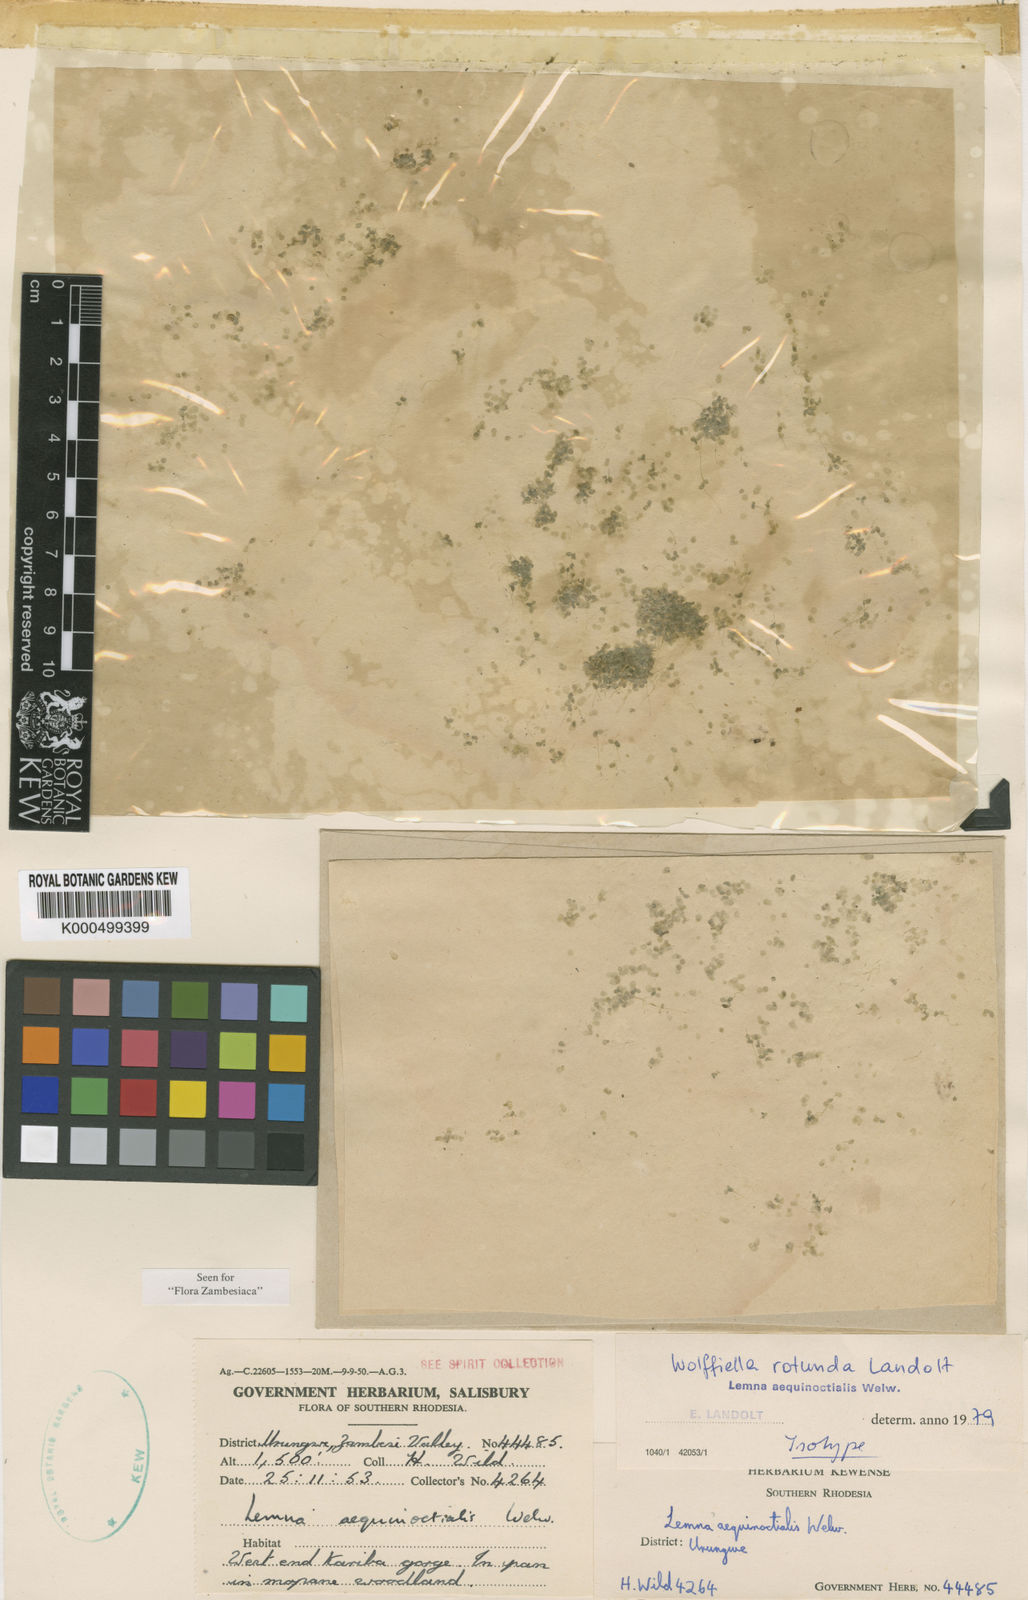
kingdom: Plantae
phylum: Tracheophyta
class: Liliopsida
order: Alismatales
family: Araceae
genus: Wolffiella
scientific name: Wolffiella rotunda
